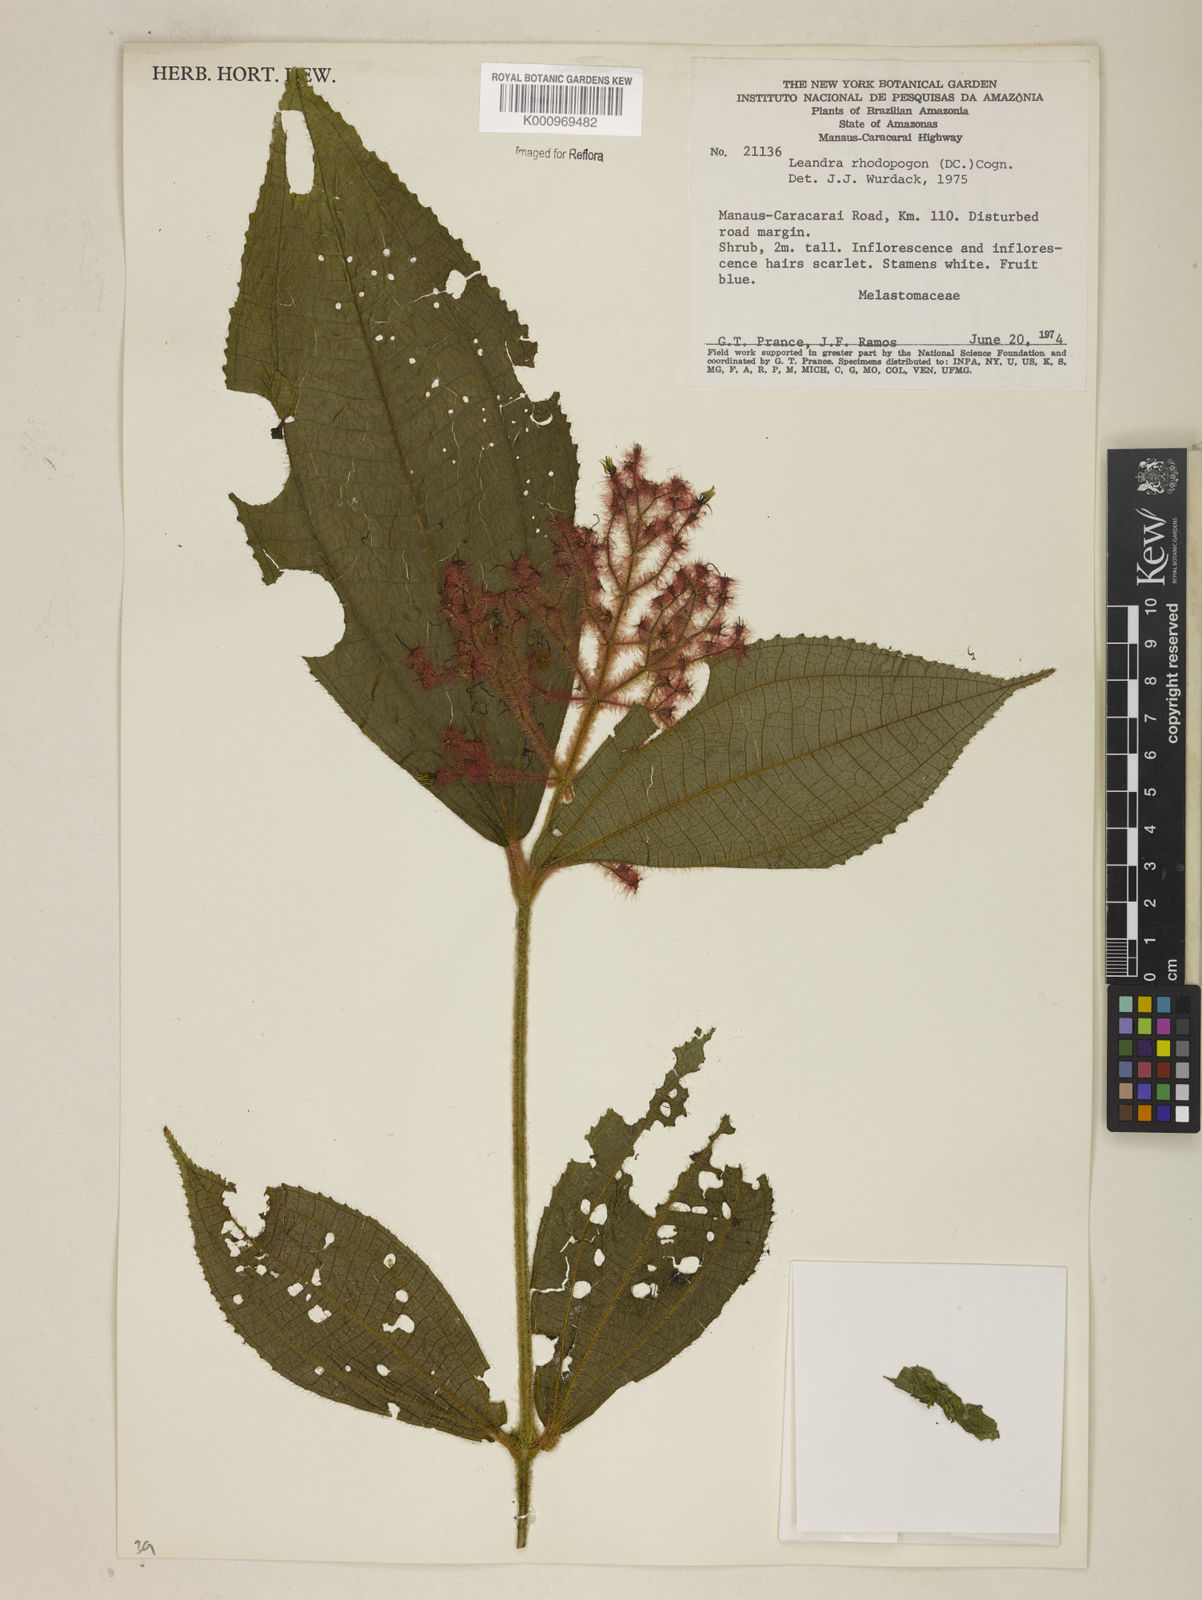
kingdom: Plantae
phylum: Tracheophyta
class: Magnoliopsida
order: Myrtales
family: Melastomataceae
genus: Miconia
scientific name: Miconia rhodopogon
